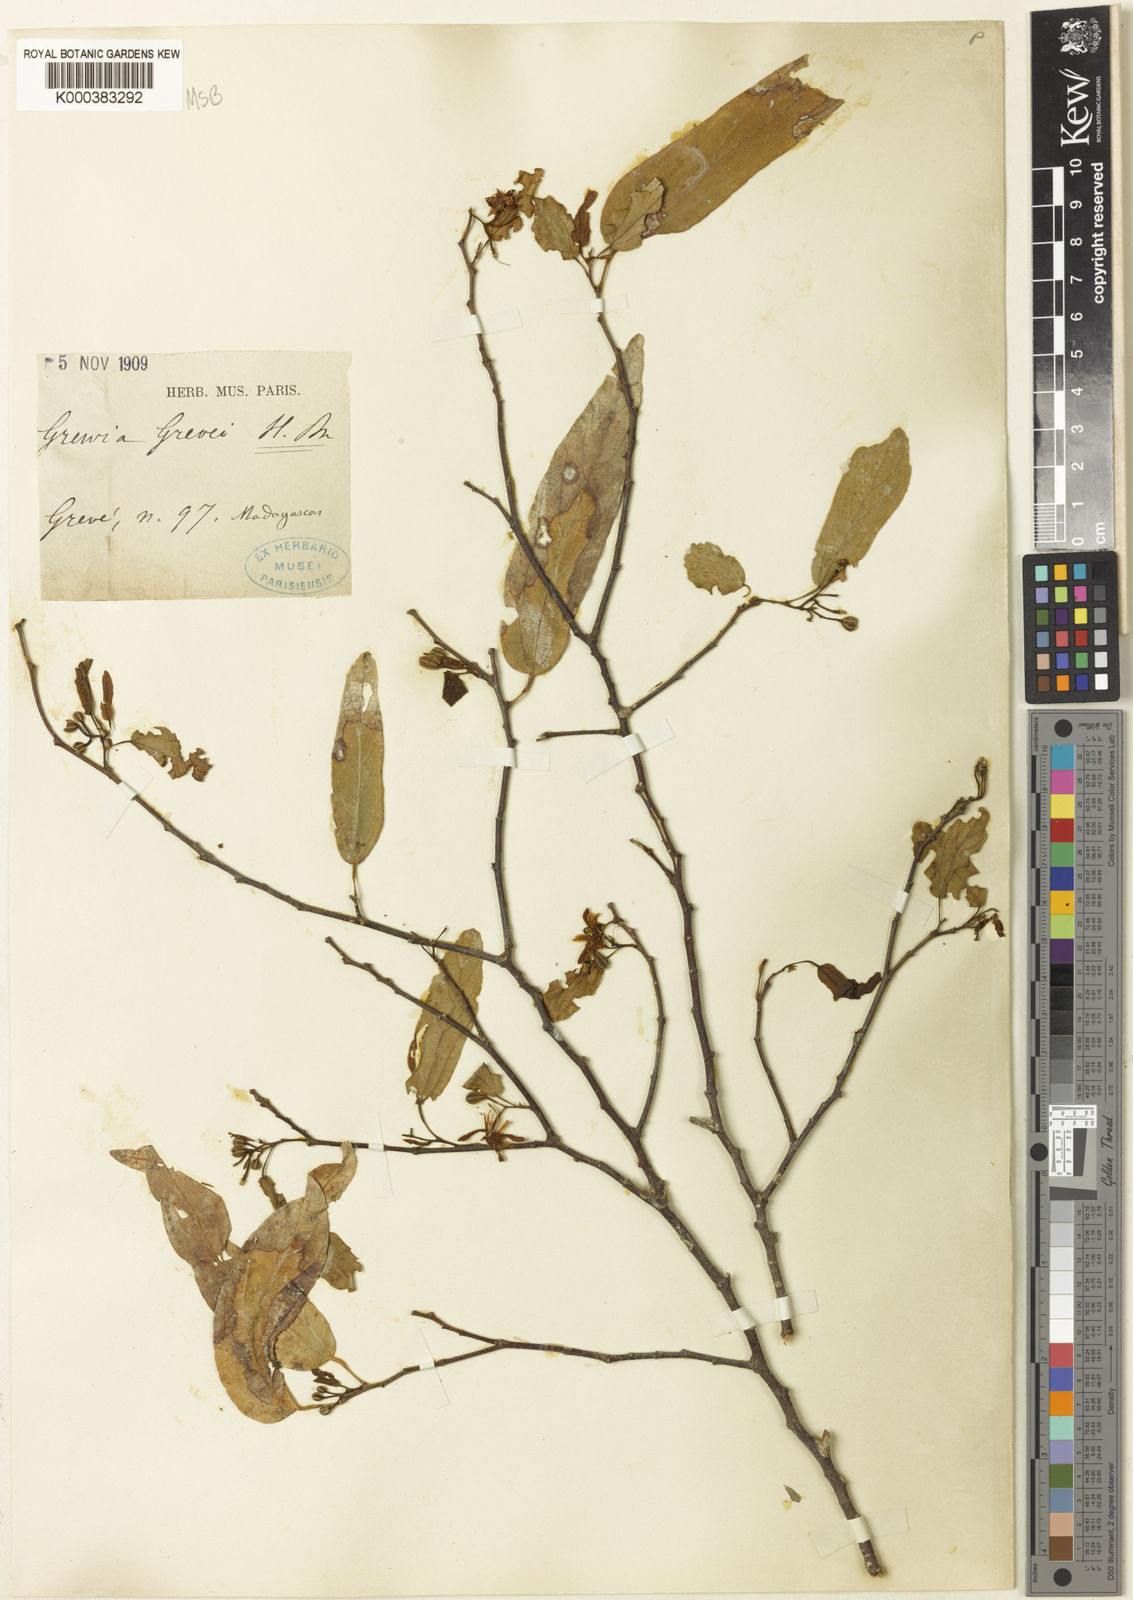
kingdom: Plantae
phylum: Tracheophyta
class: Magnoliopsida
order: Malvales
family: Malvaceae
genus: Grewia
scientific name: Grewia grevei
